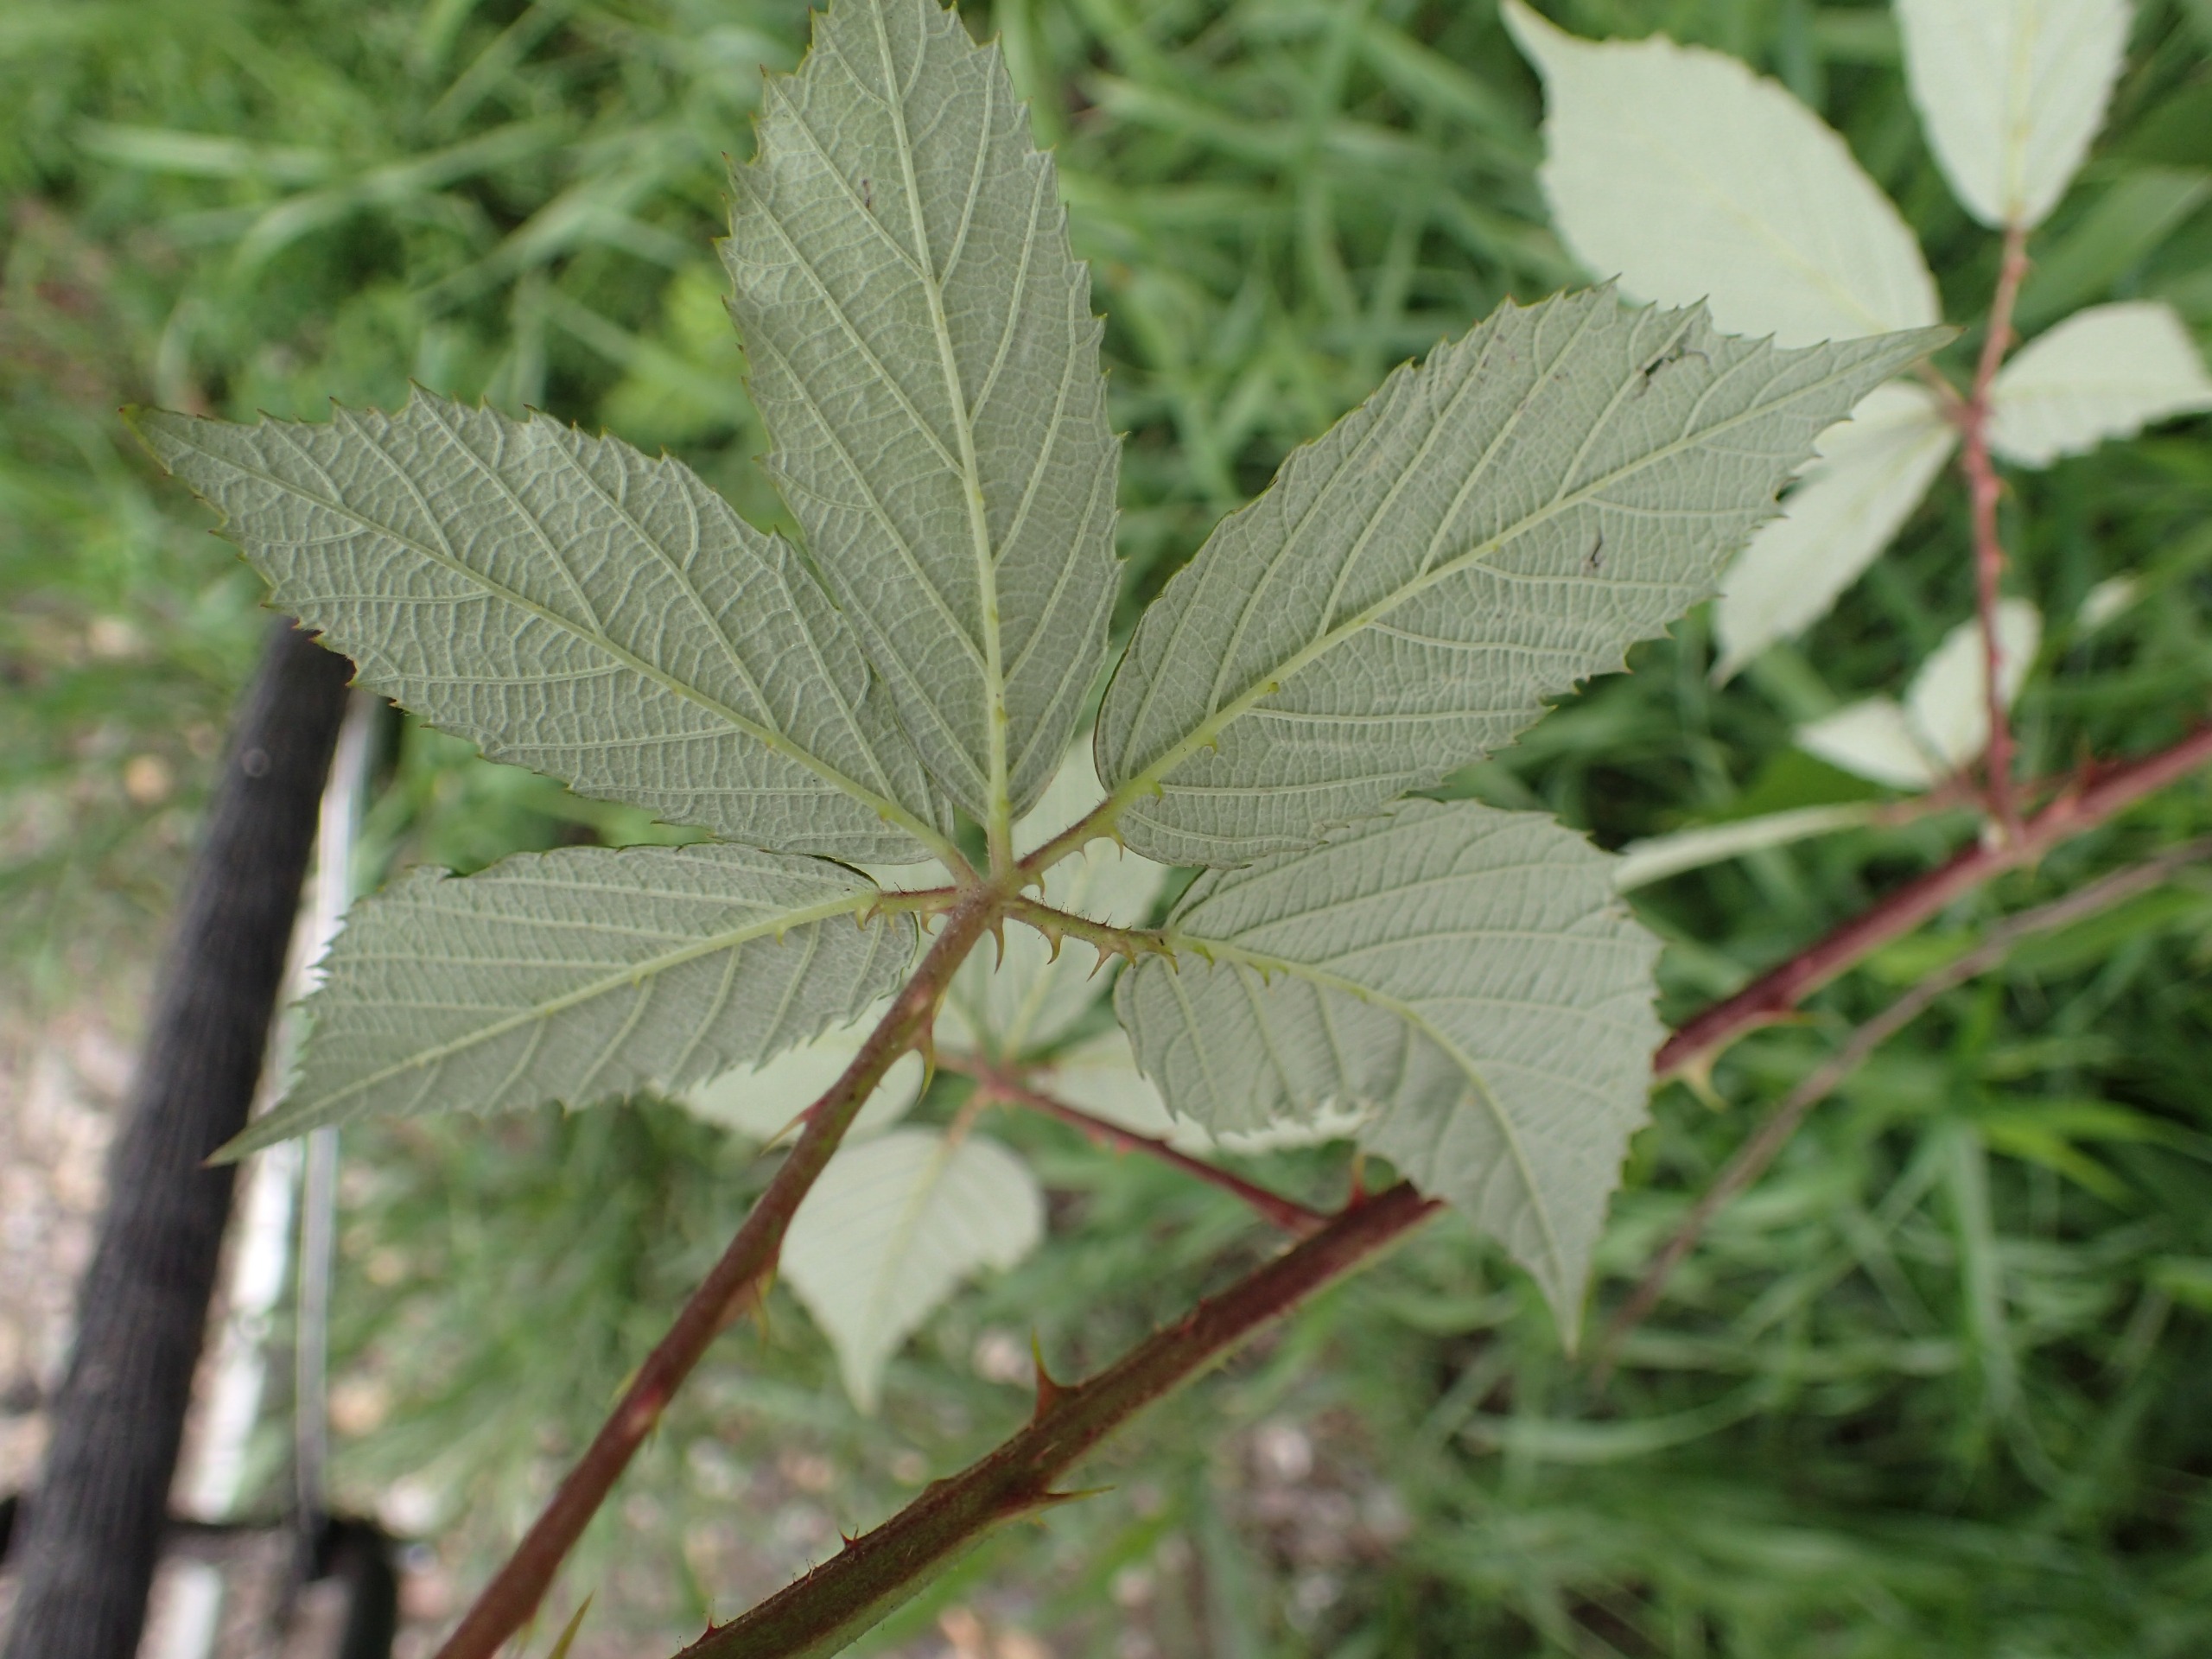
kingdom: Plantae
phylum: Tracheophyta
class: Magnoliopsida
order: Rosales
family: Rosaceae
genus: Rubus
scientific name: Rubus radula
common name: Rasperu brombær
